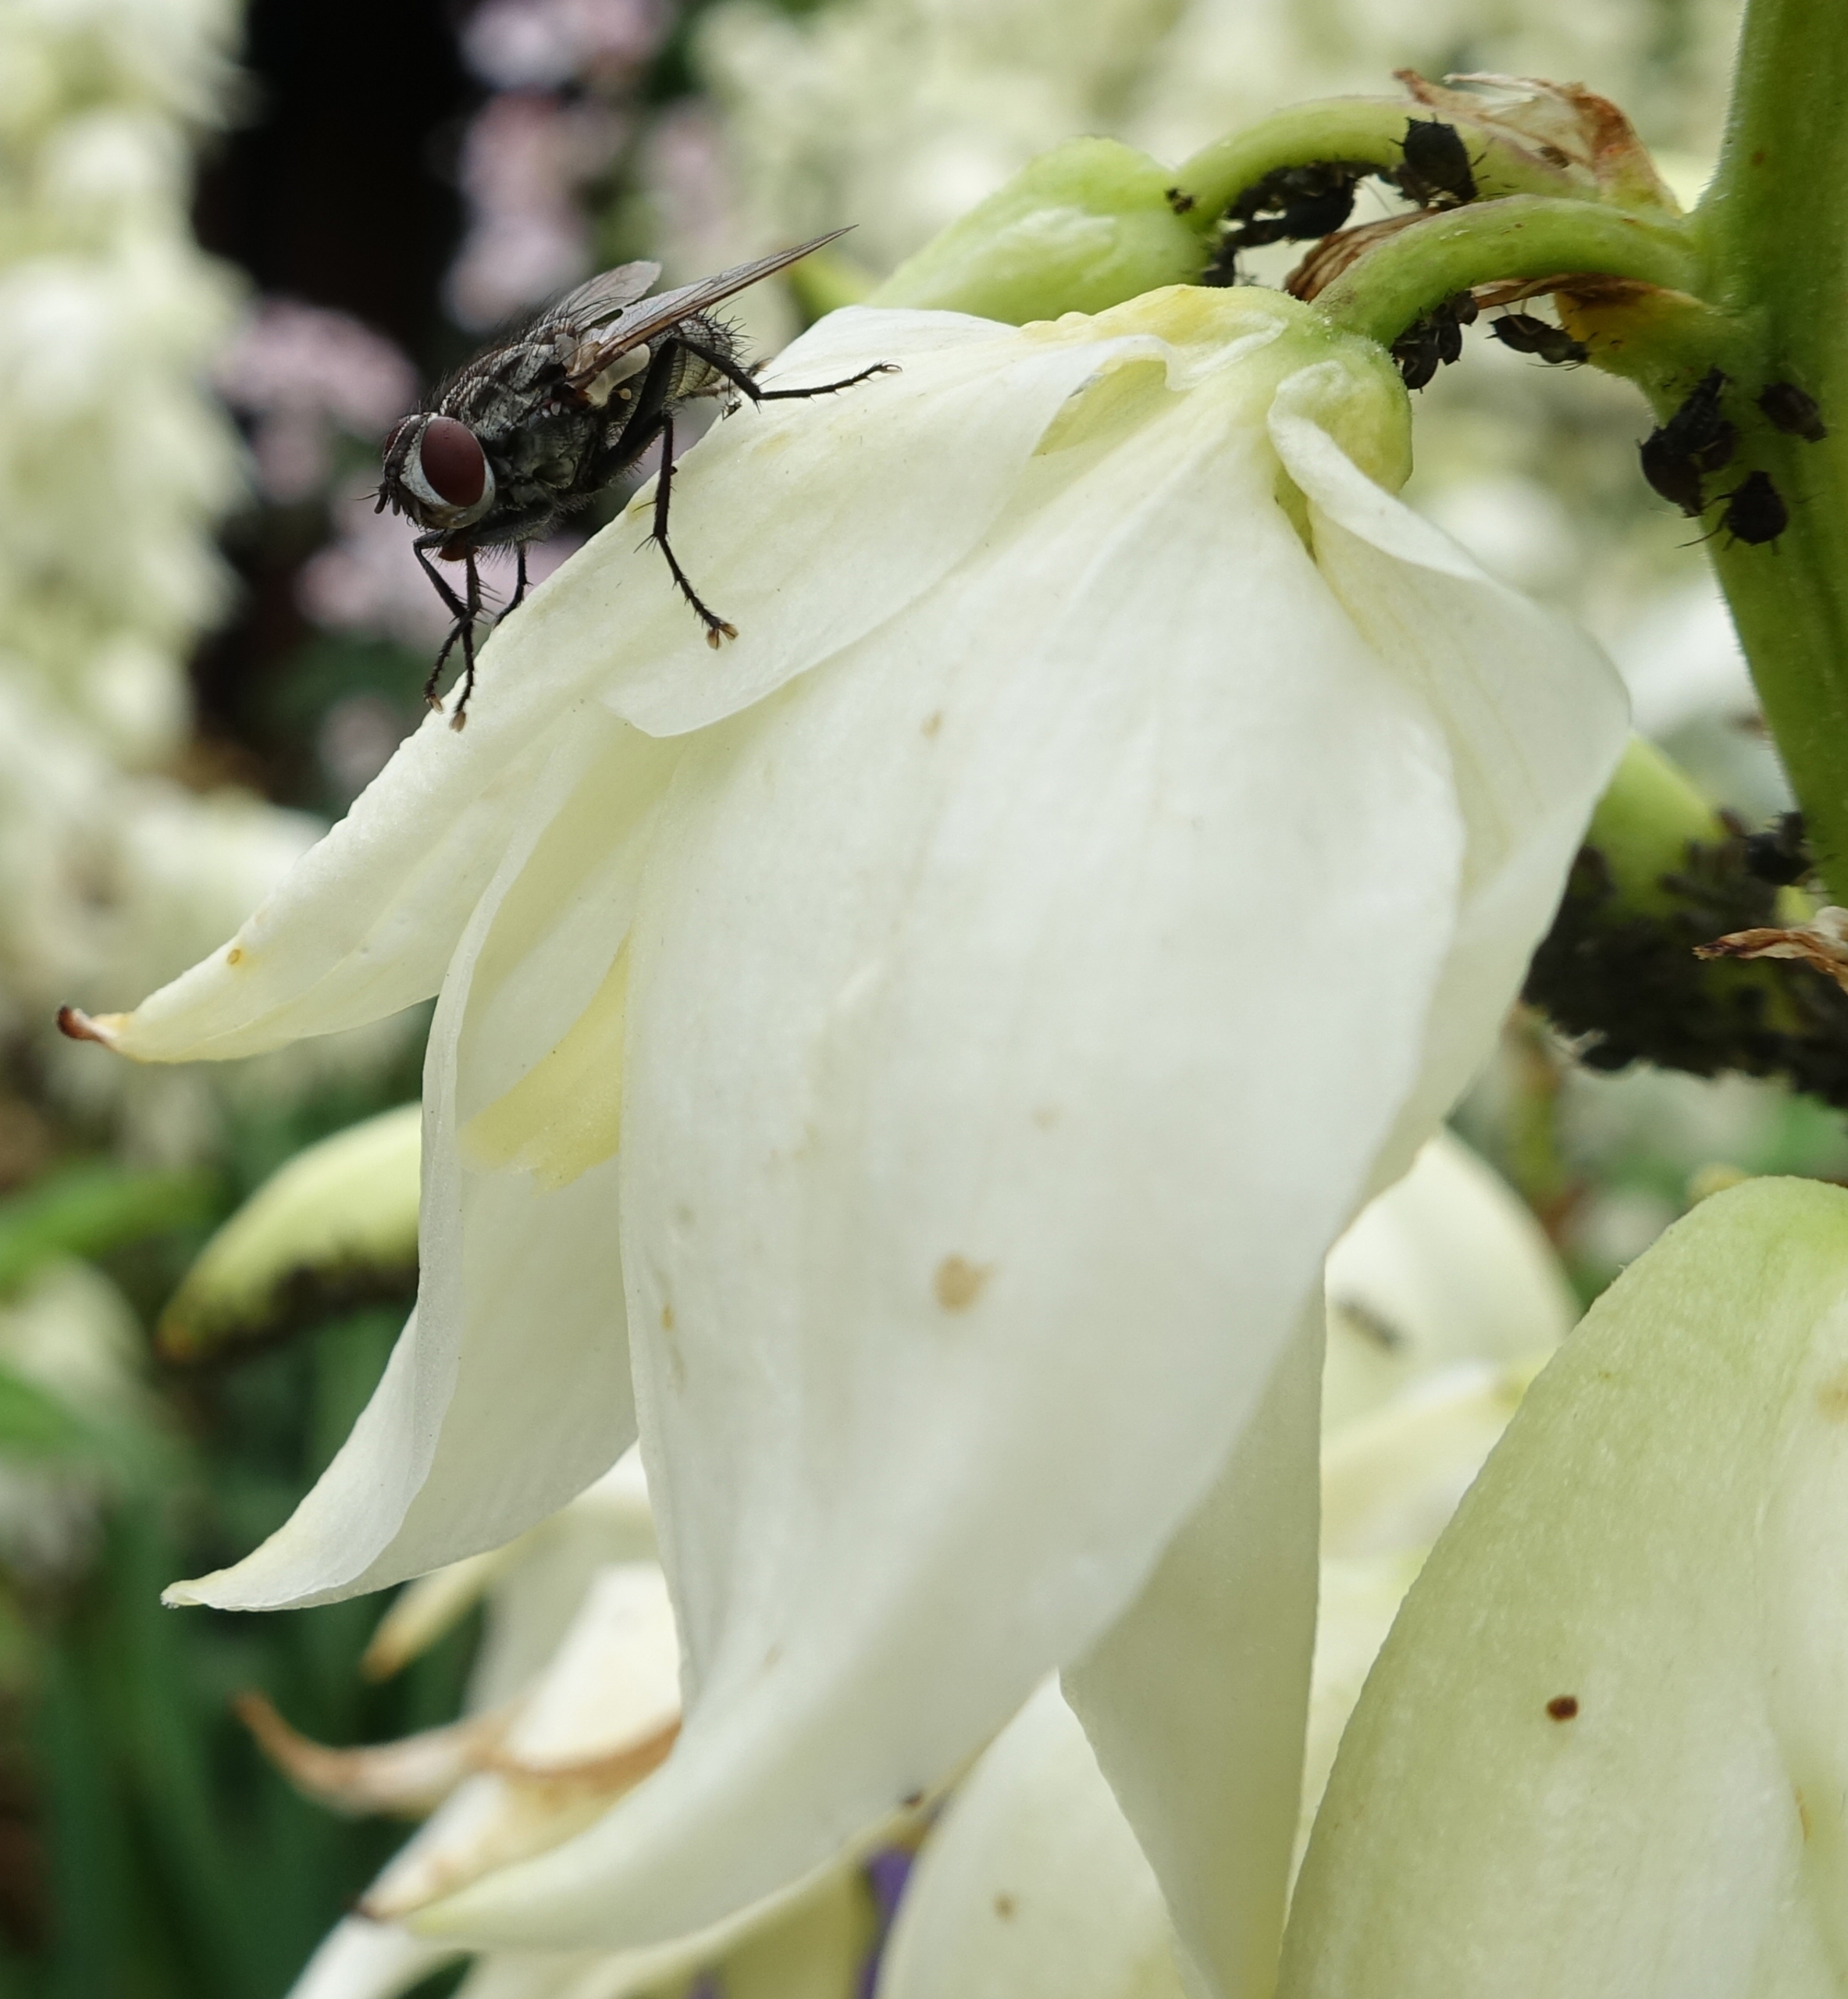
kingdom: Animalia
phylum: Arthropoda
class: Insecta
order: Diptera
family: Sarcophagidae
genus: Macronychia
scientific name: Macronychia polyodon
